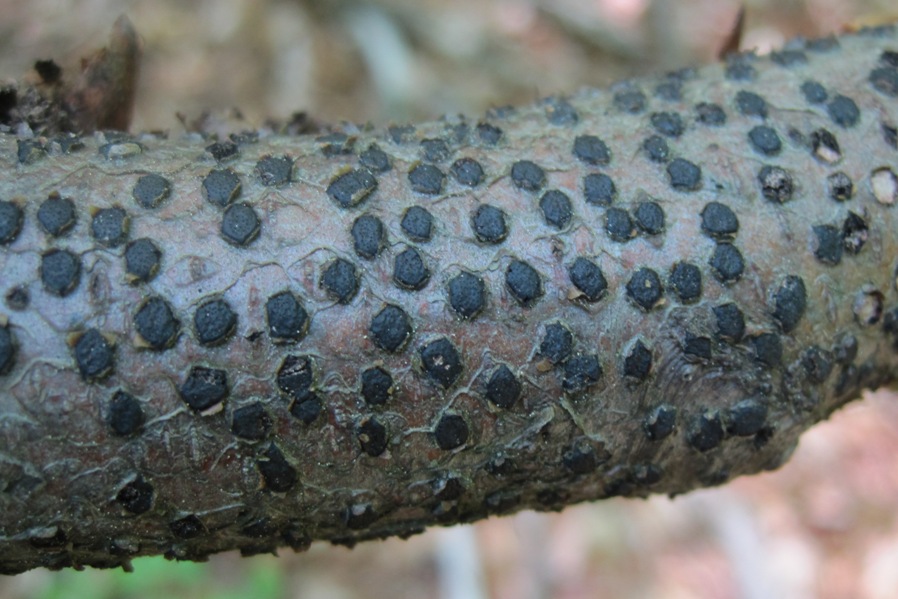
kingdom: Fungi
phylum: Ascomycota
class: Sordariomycetes
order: Xylariales
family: Diatrypaceae
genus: Diatrype
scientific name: Diatrype disciformis
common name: kant-kulskorpe
